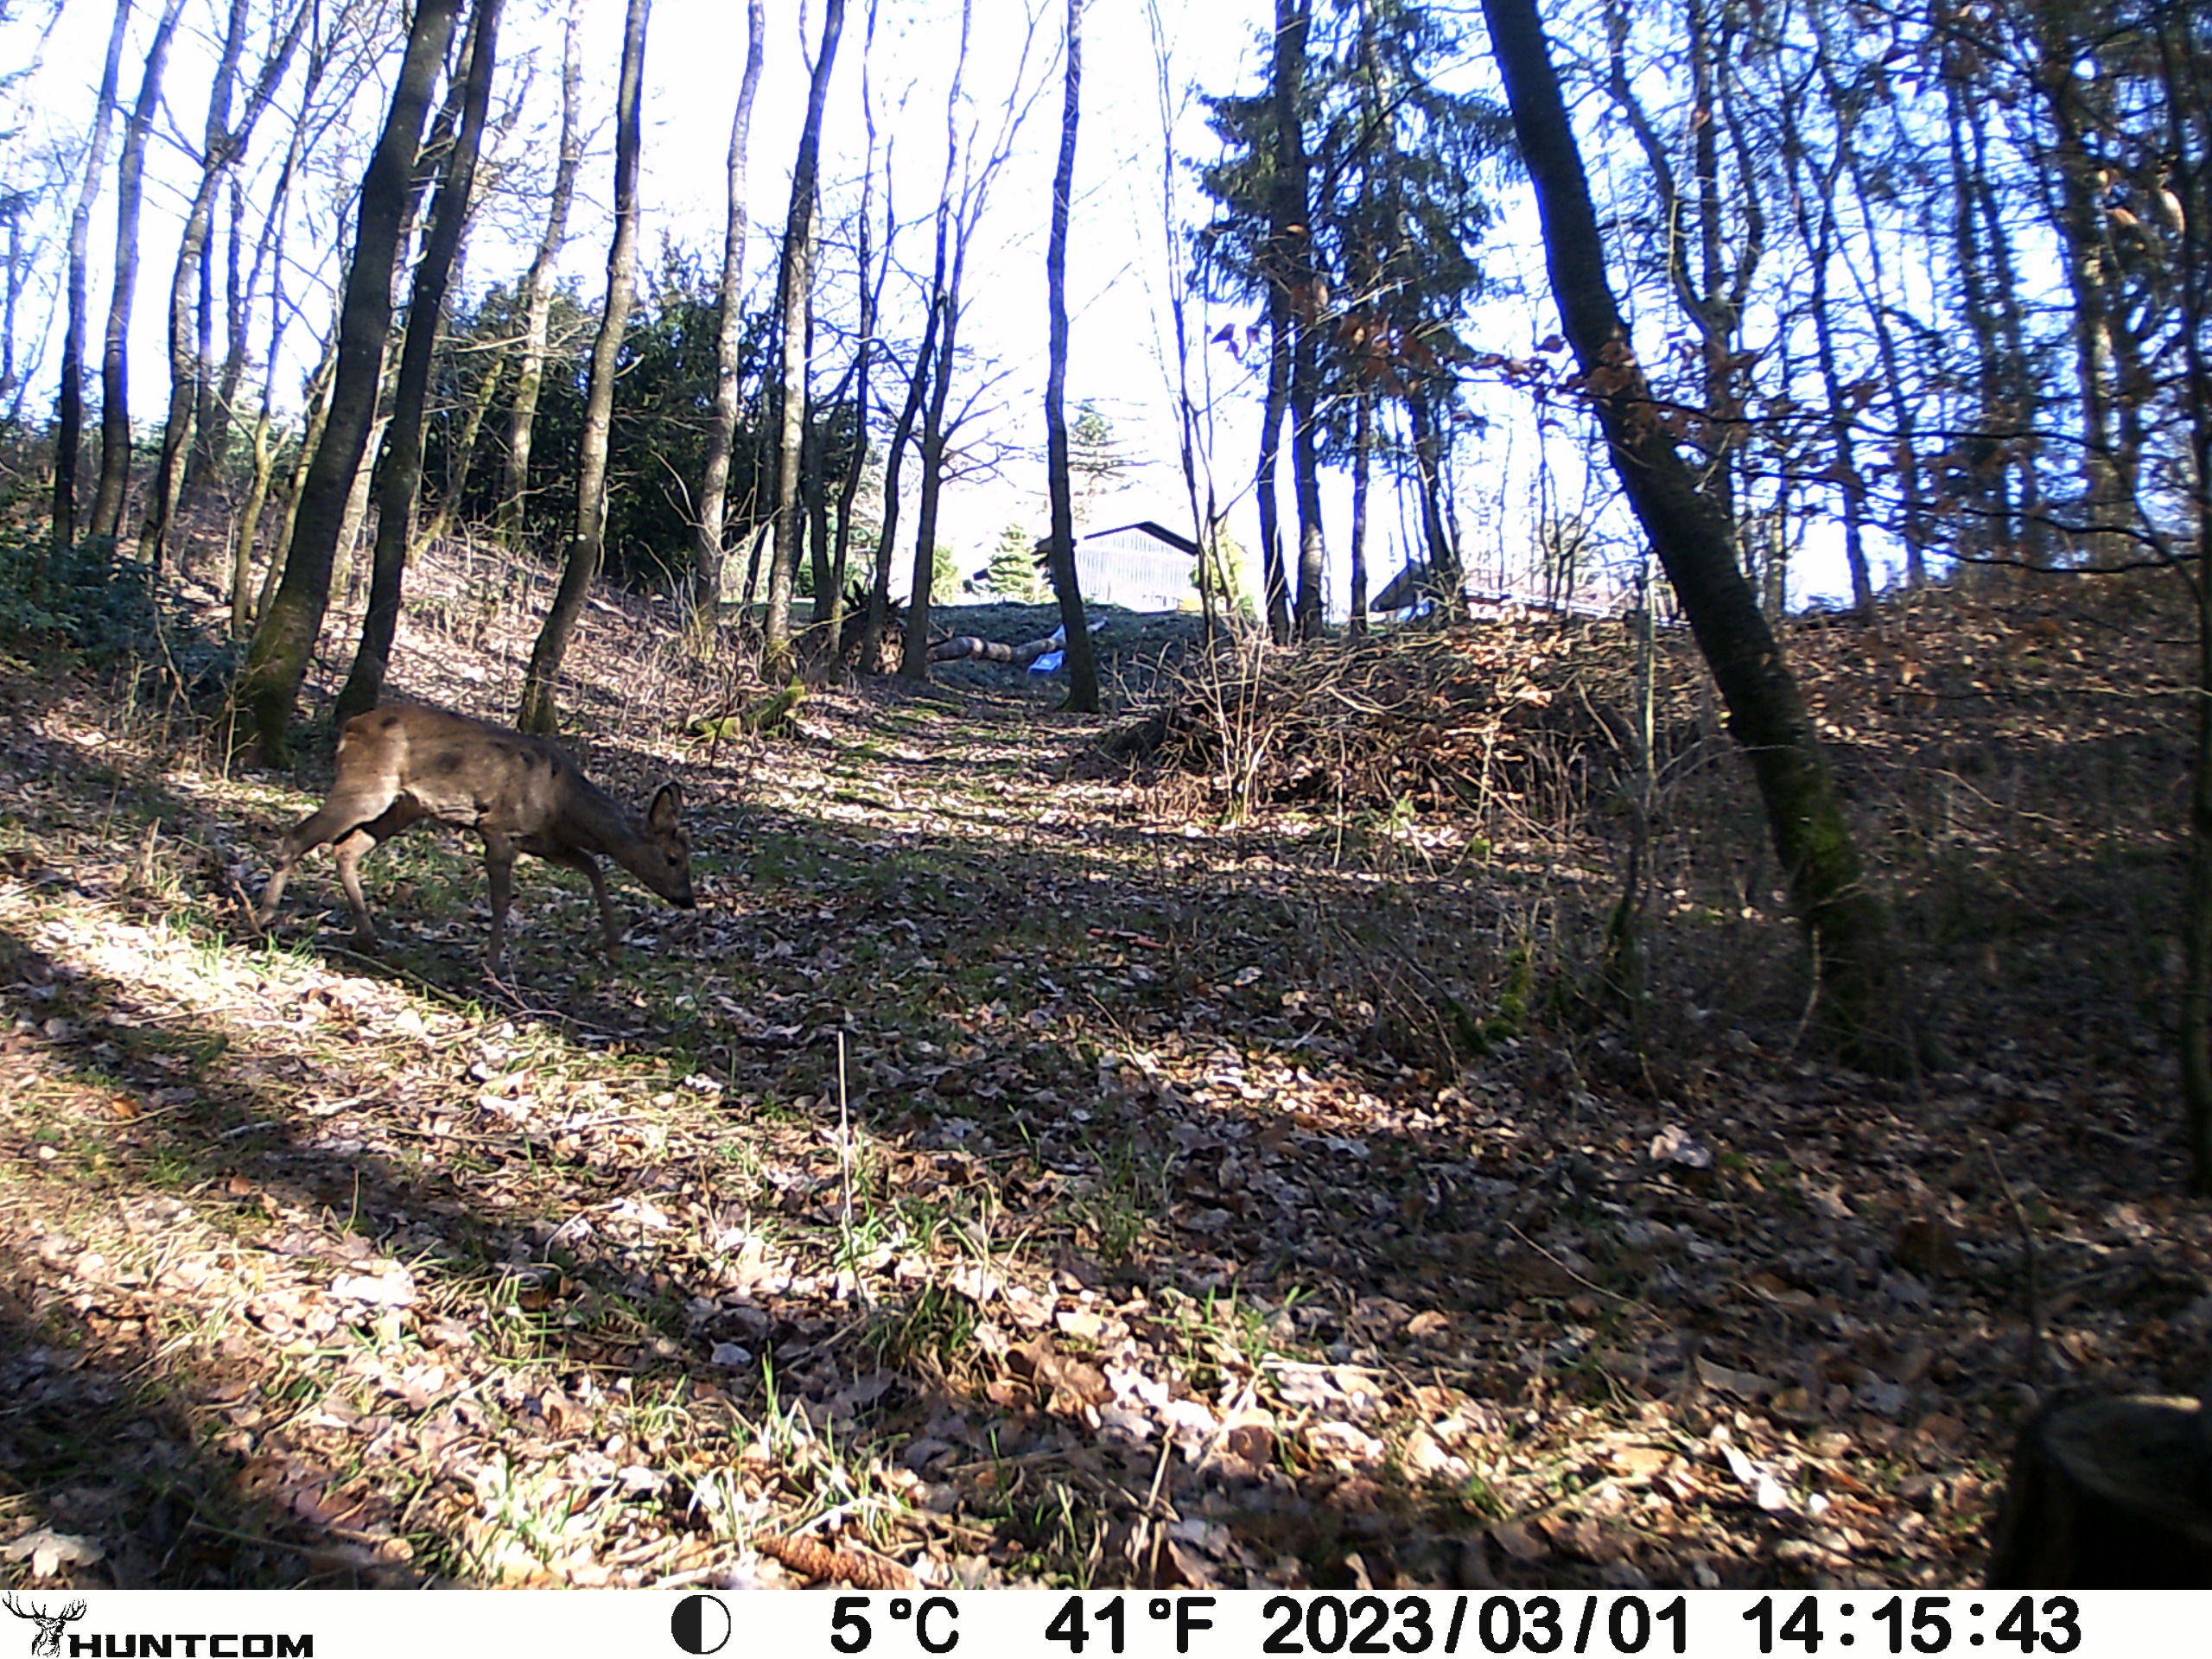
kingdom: Animalia
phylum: Chordata
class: Mammalia
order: Artiodactyla
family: Cervidae
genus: Capreolus
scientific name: Capreolus capreolus
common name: Rådyr
